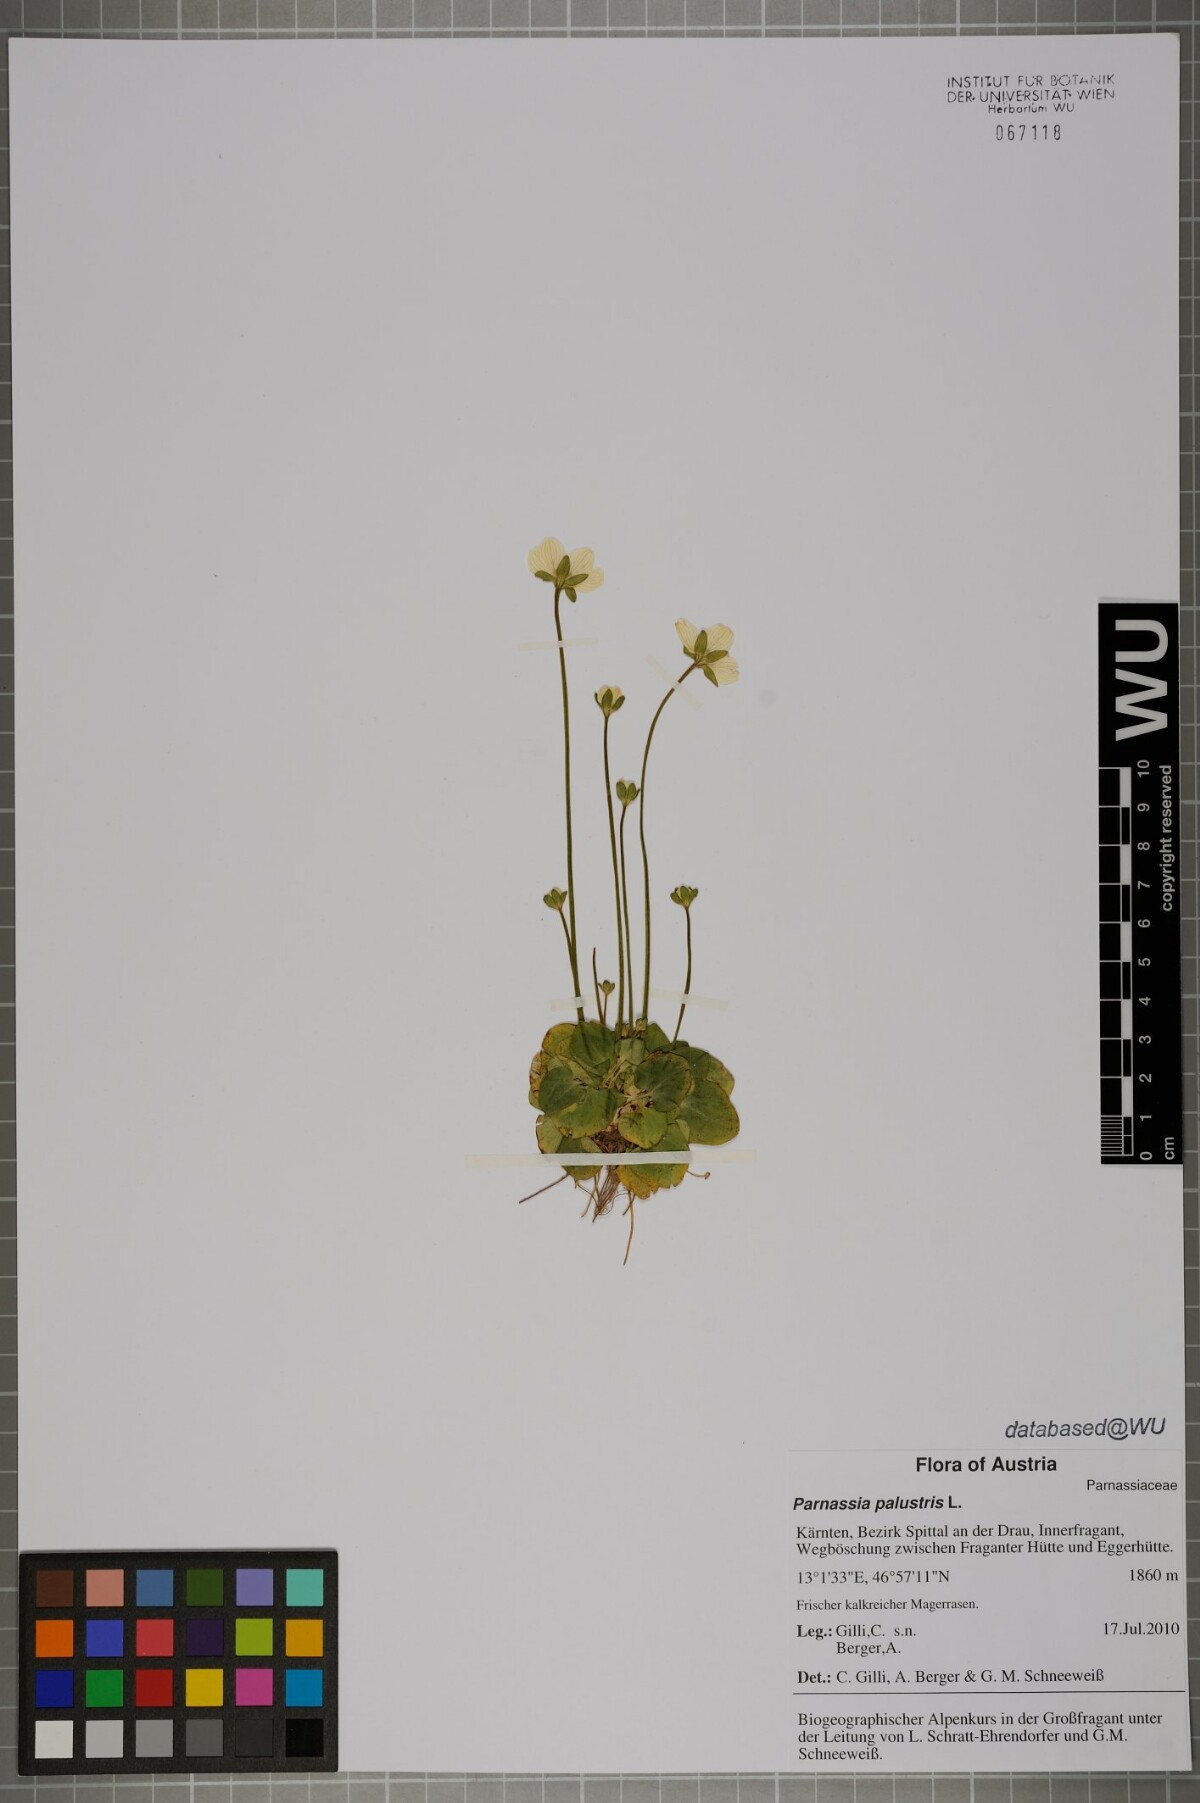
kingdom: Plantae
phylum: Tracheophyta
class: Magnoliopsida
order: Celastrales
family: Parnassiaceae
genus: Parnassia
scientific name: Parnassia palustris
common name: Grass-of-parnassus
